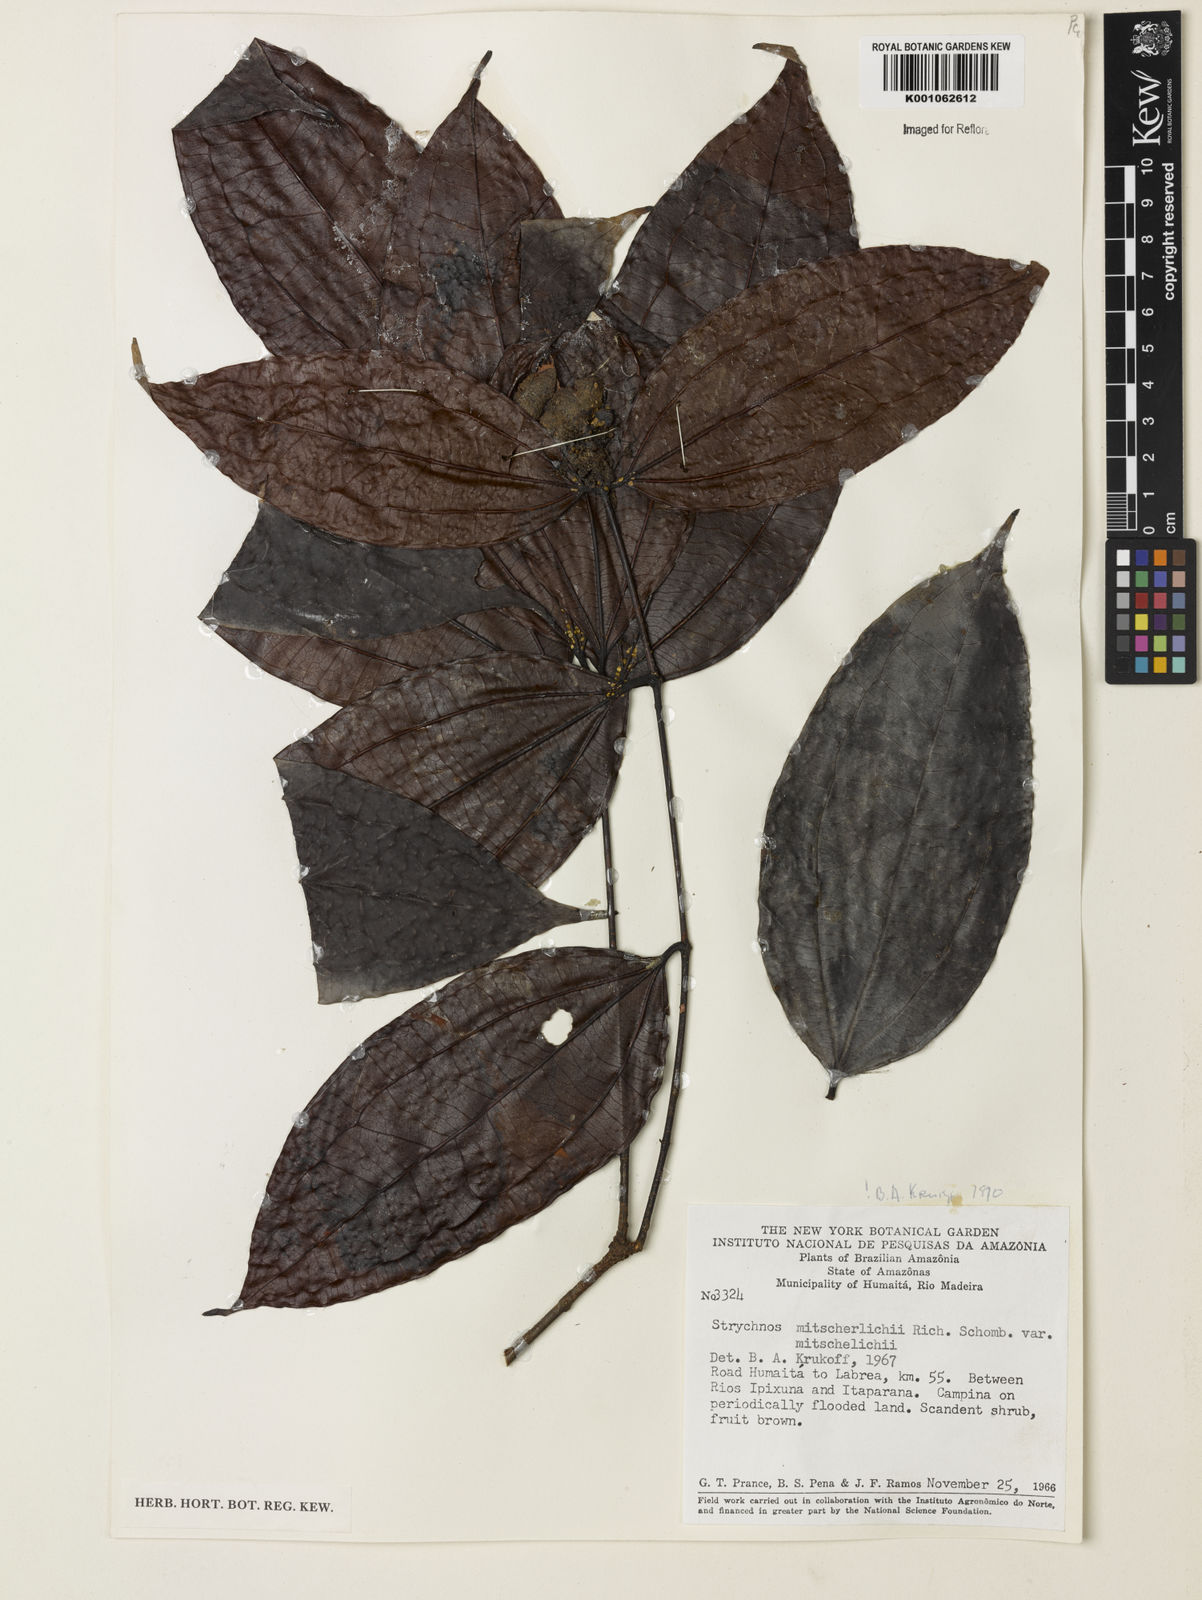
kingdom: Plantae
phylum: Tracheophyta
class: Magnoliopsida
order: Gentianales
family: Loganiaceae
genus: Strychnos
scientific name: Strychnos mitscherlichii
